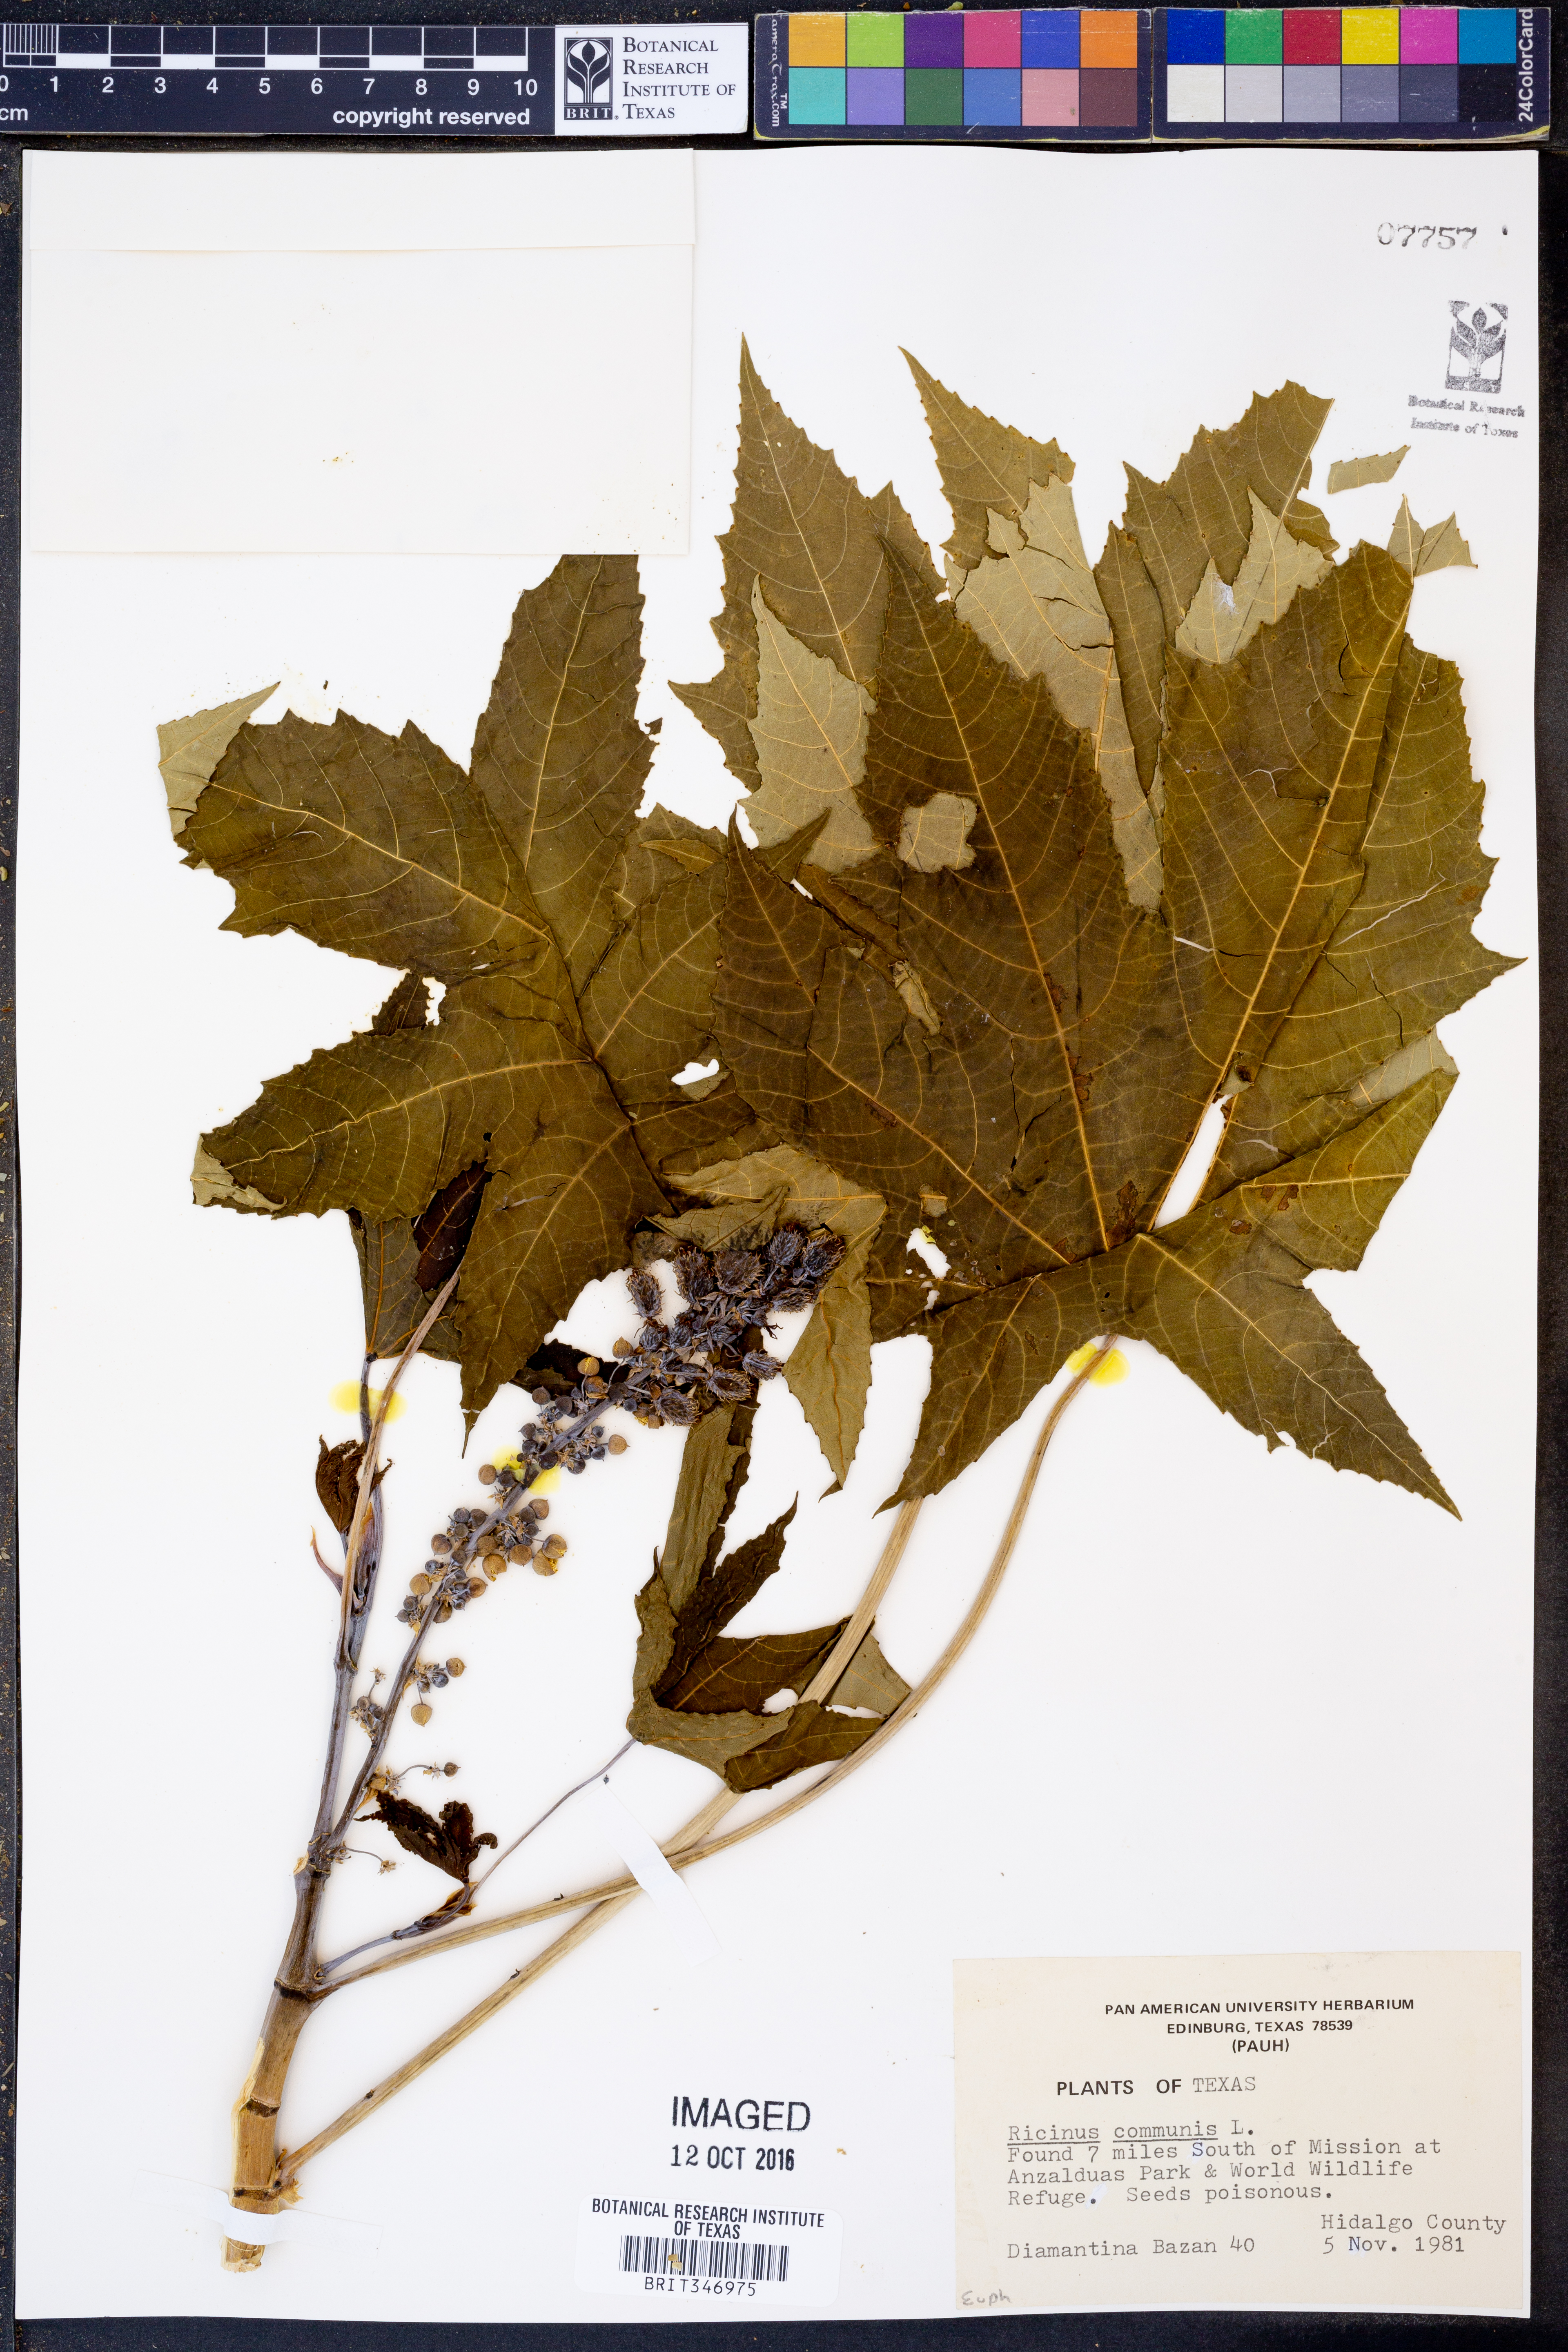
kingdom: Plantae
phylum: Tracheophyta
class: Magnoliopsida
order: Malpighiales
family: Euphorbiaceae
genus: Ricinus
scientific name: Ricinus communis
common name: Castor-oil-plant
